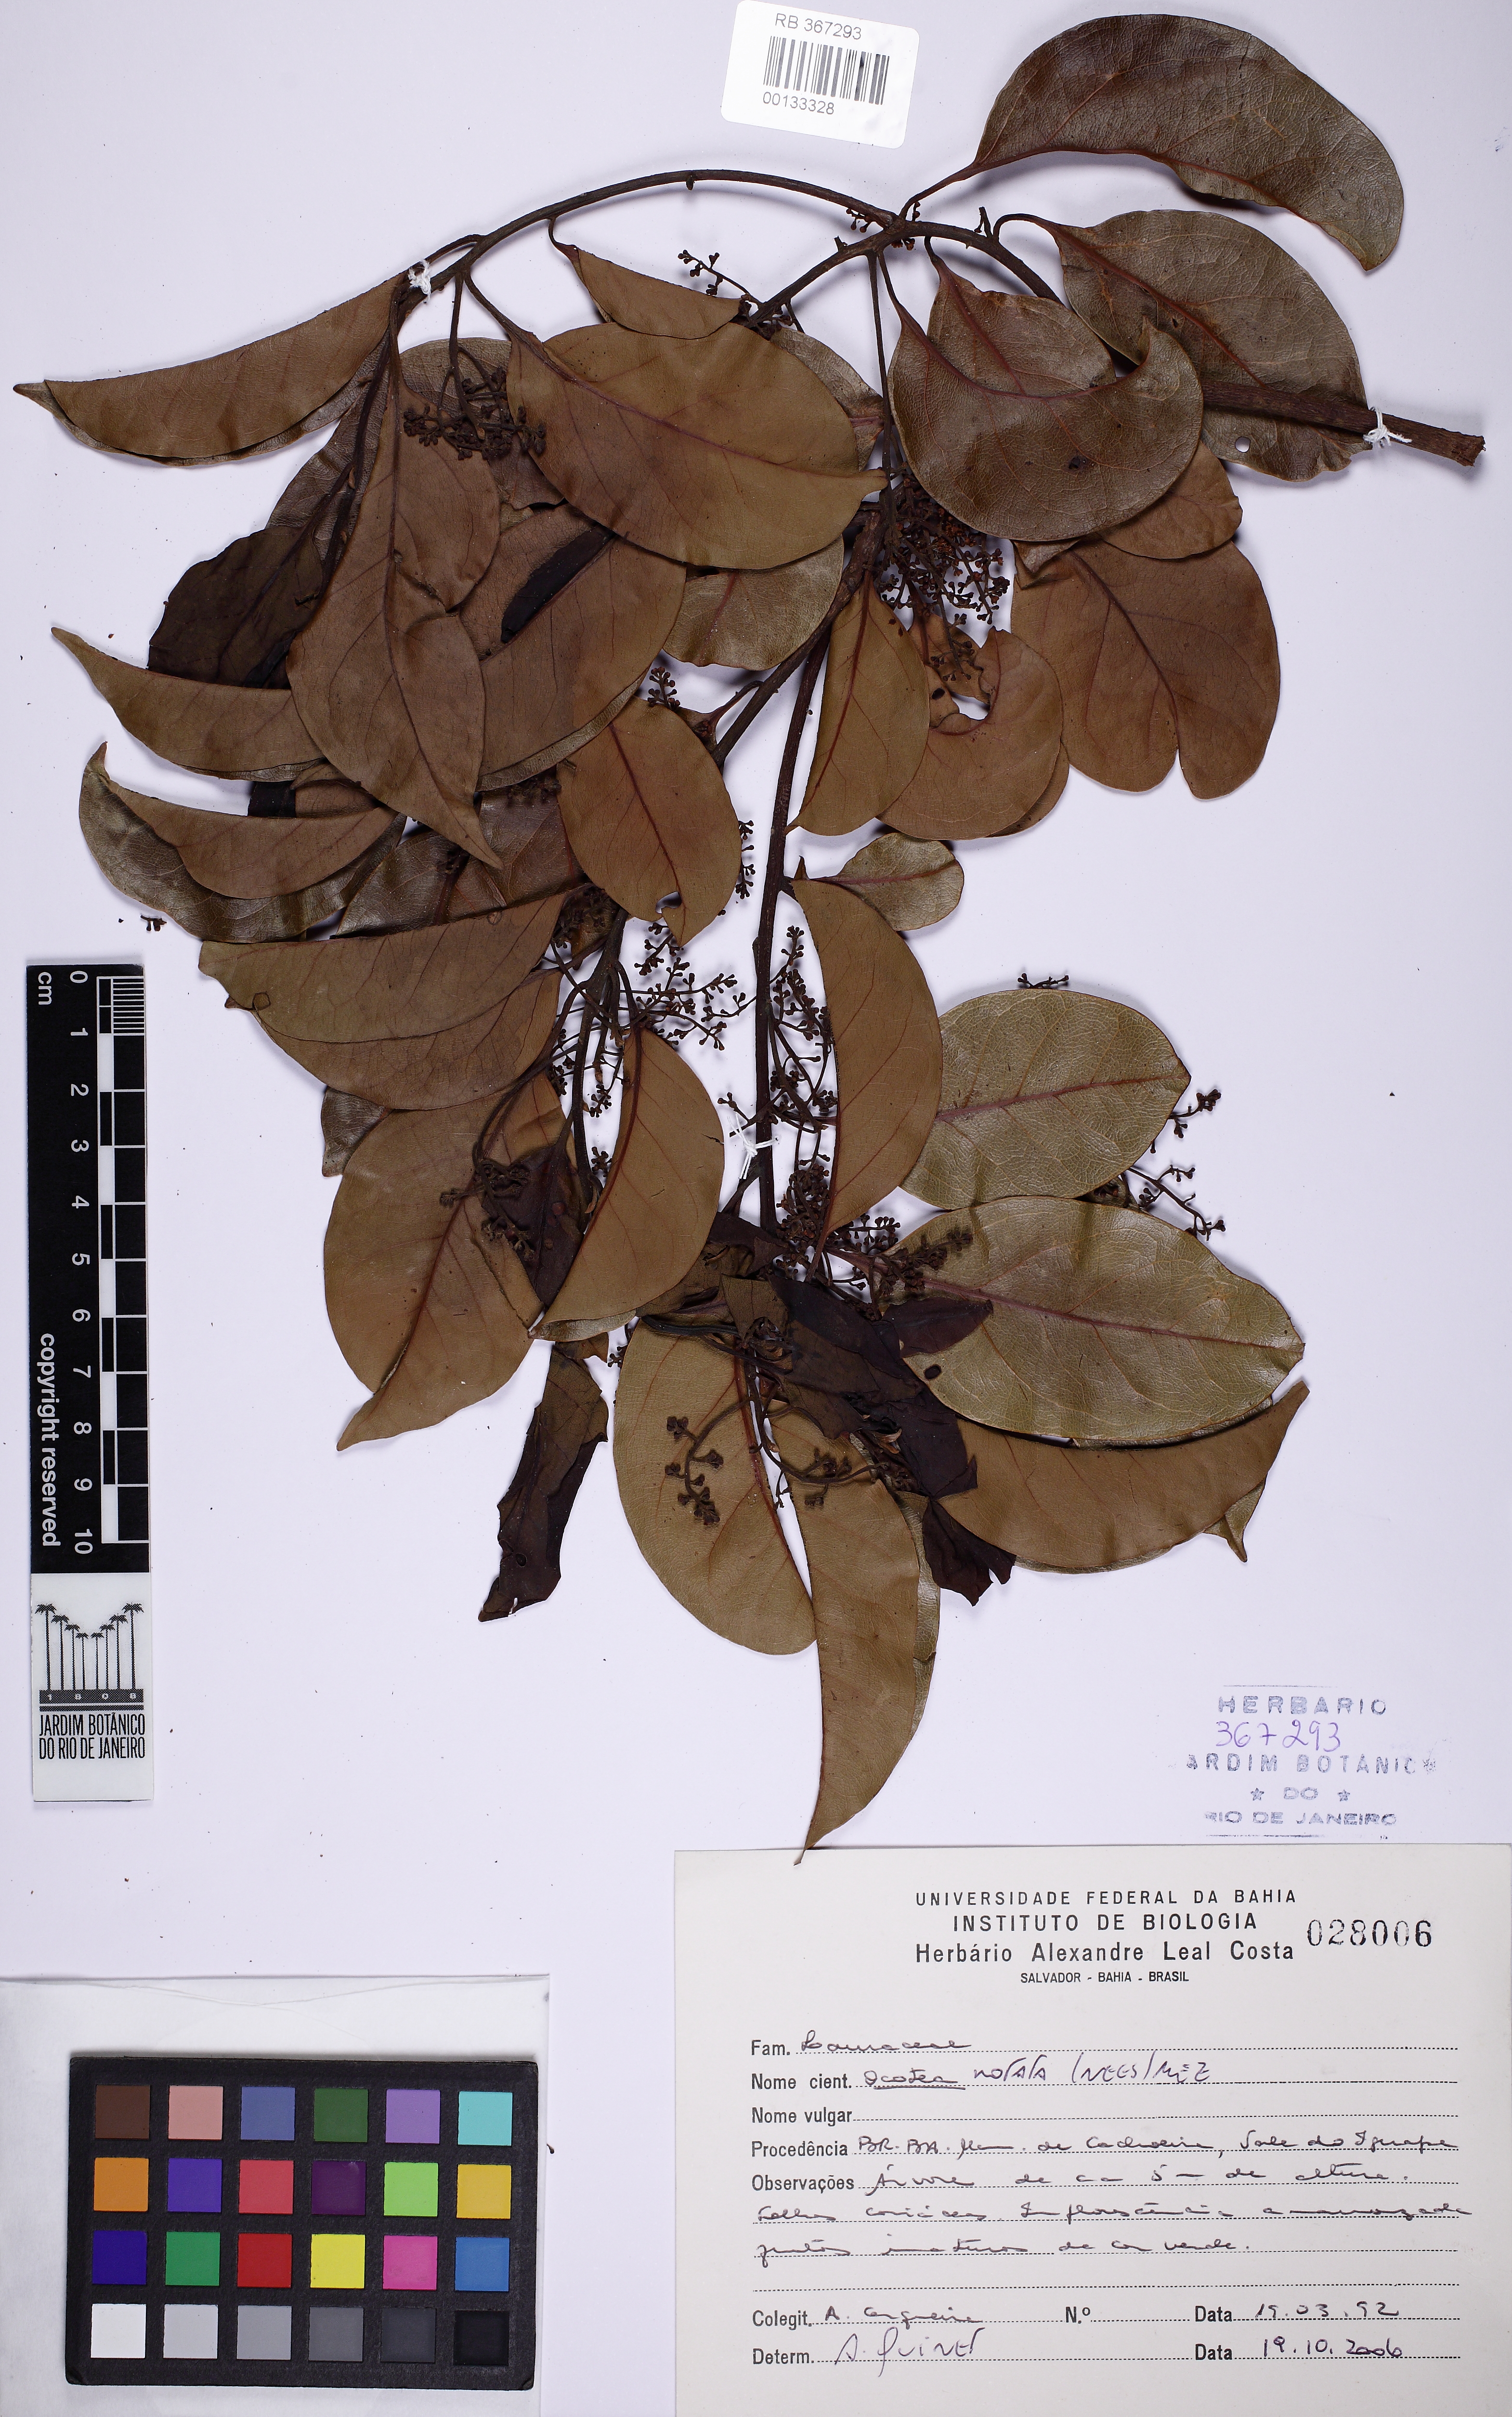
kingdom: Plantae
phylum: Tracheophyta
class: Magnoliopsida
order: Laurales
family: Lauraceae
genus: Mespilodaphne
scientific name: Mespilodaphne notata
